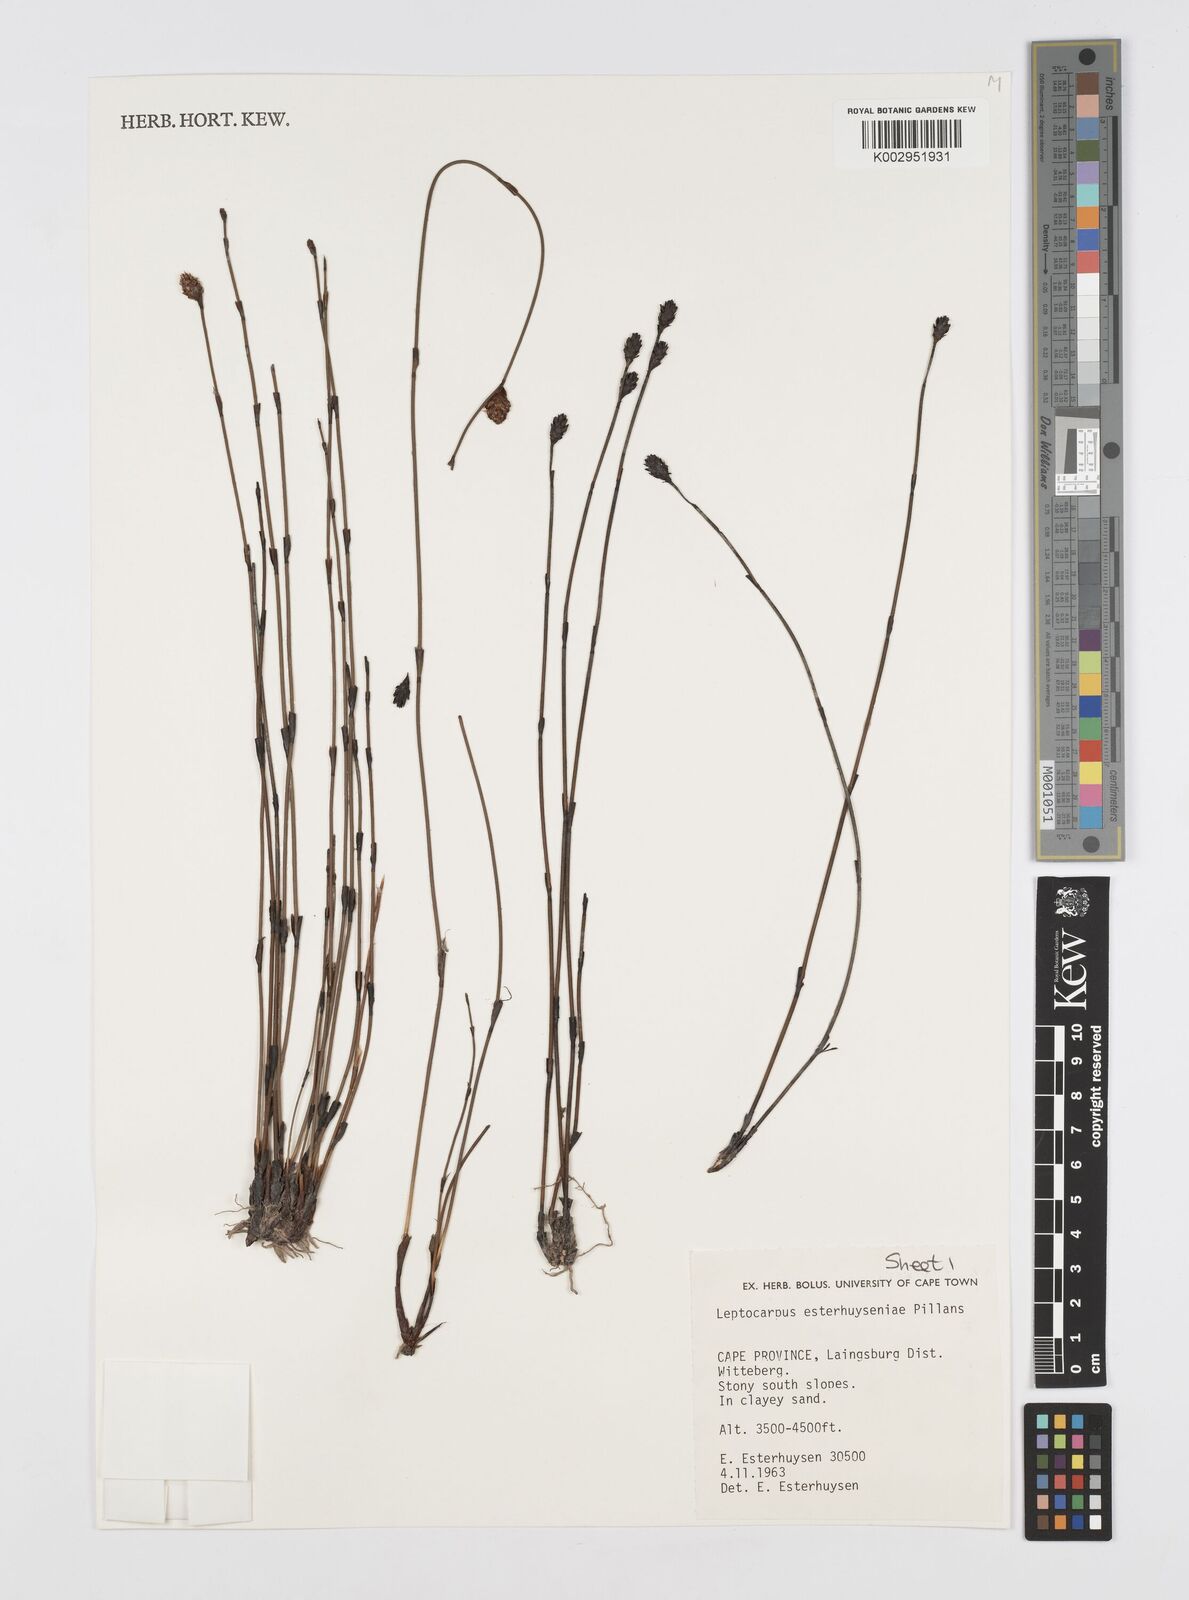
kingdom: Plantae
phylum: Tracheophyta
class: Liliopsida
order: Poales
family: Restionaceae
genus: Restio
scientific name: Restio esterhuyseniae
